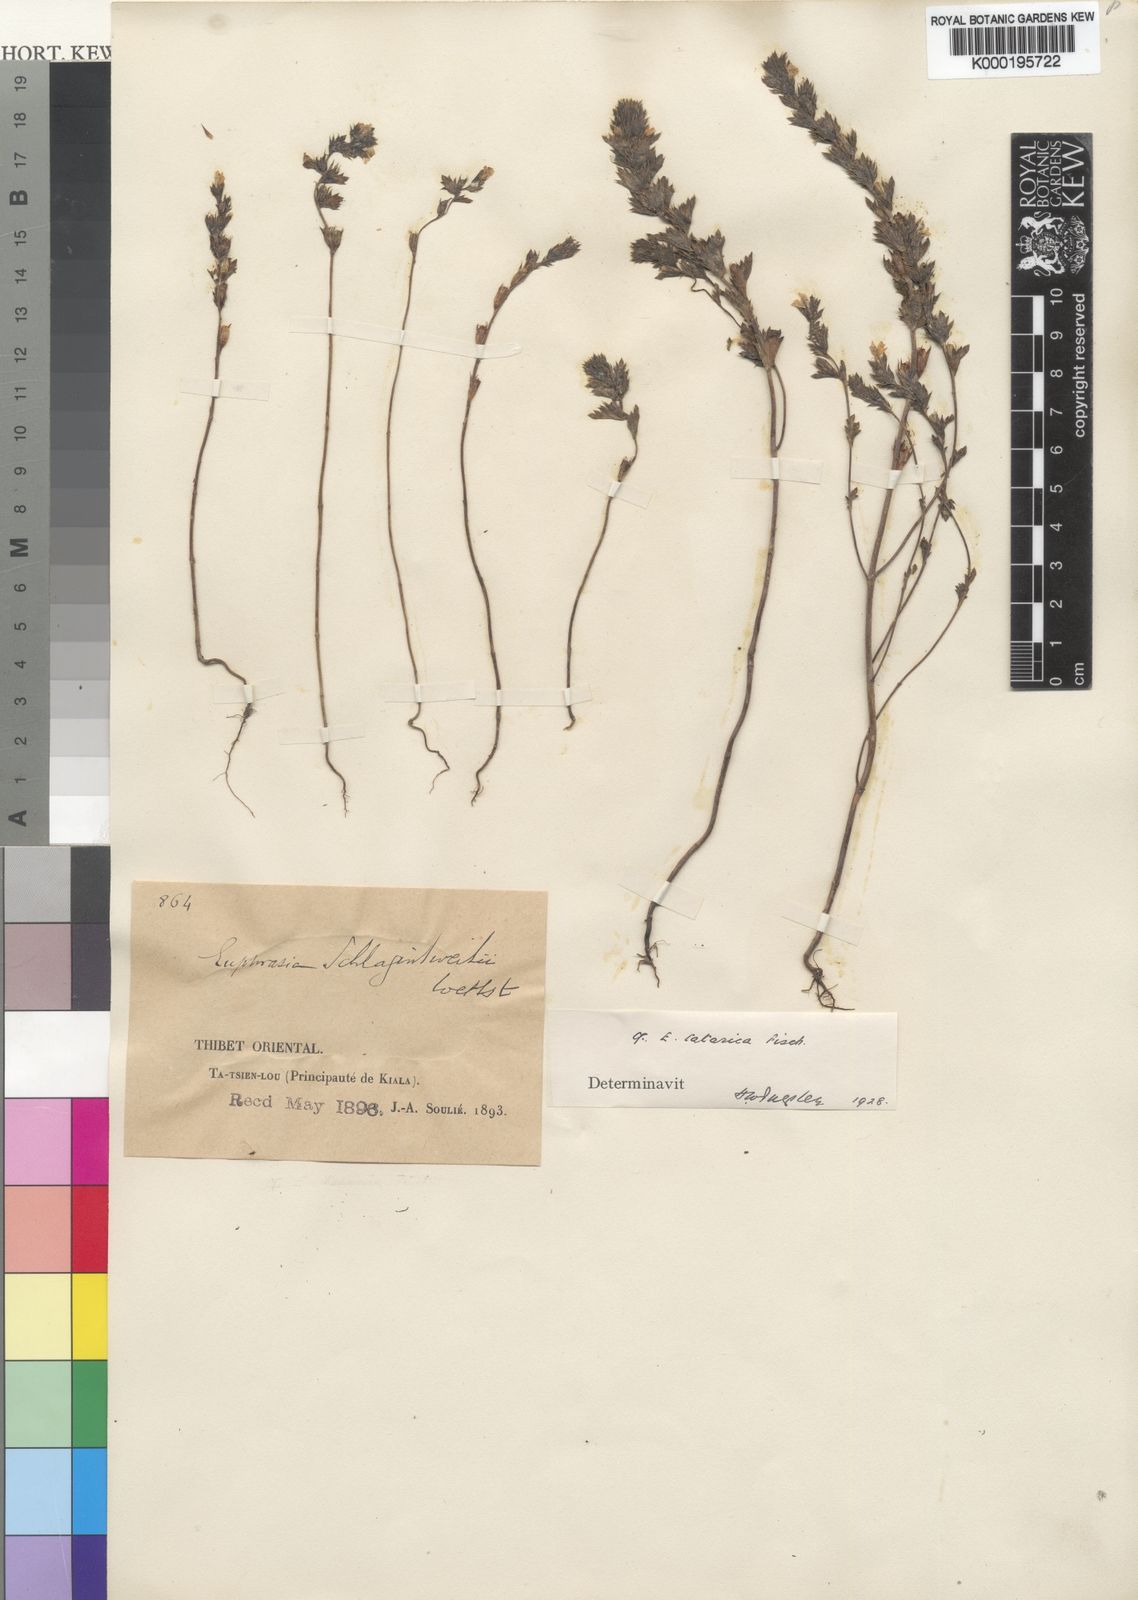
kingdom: Plantae
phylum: Tracheophyta
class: Magnoliopsida
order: Lamiales
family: Orobanchaceae
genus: Euphrasia
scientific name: Euphrasia
